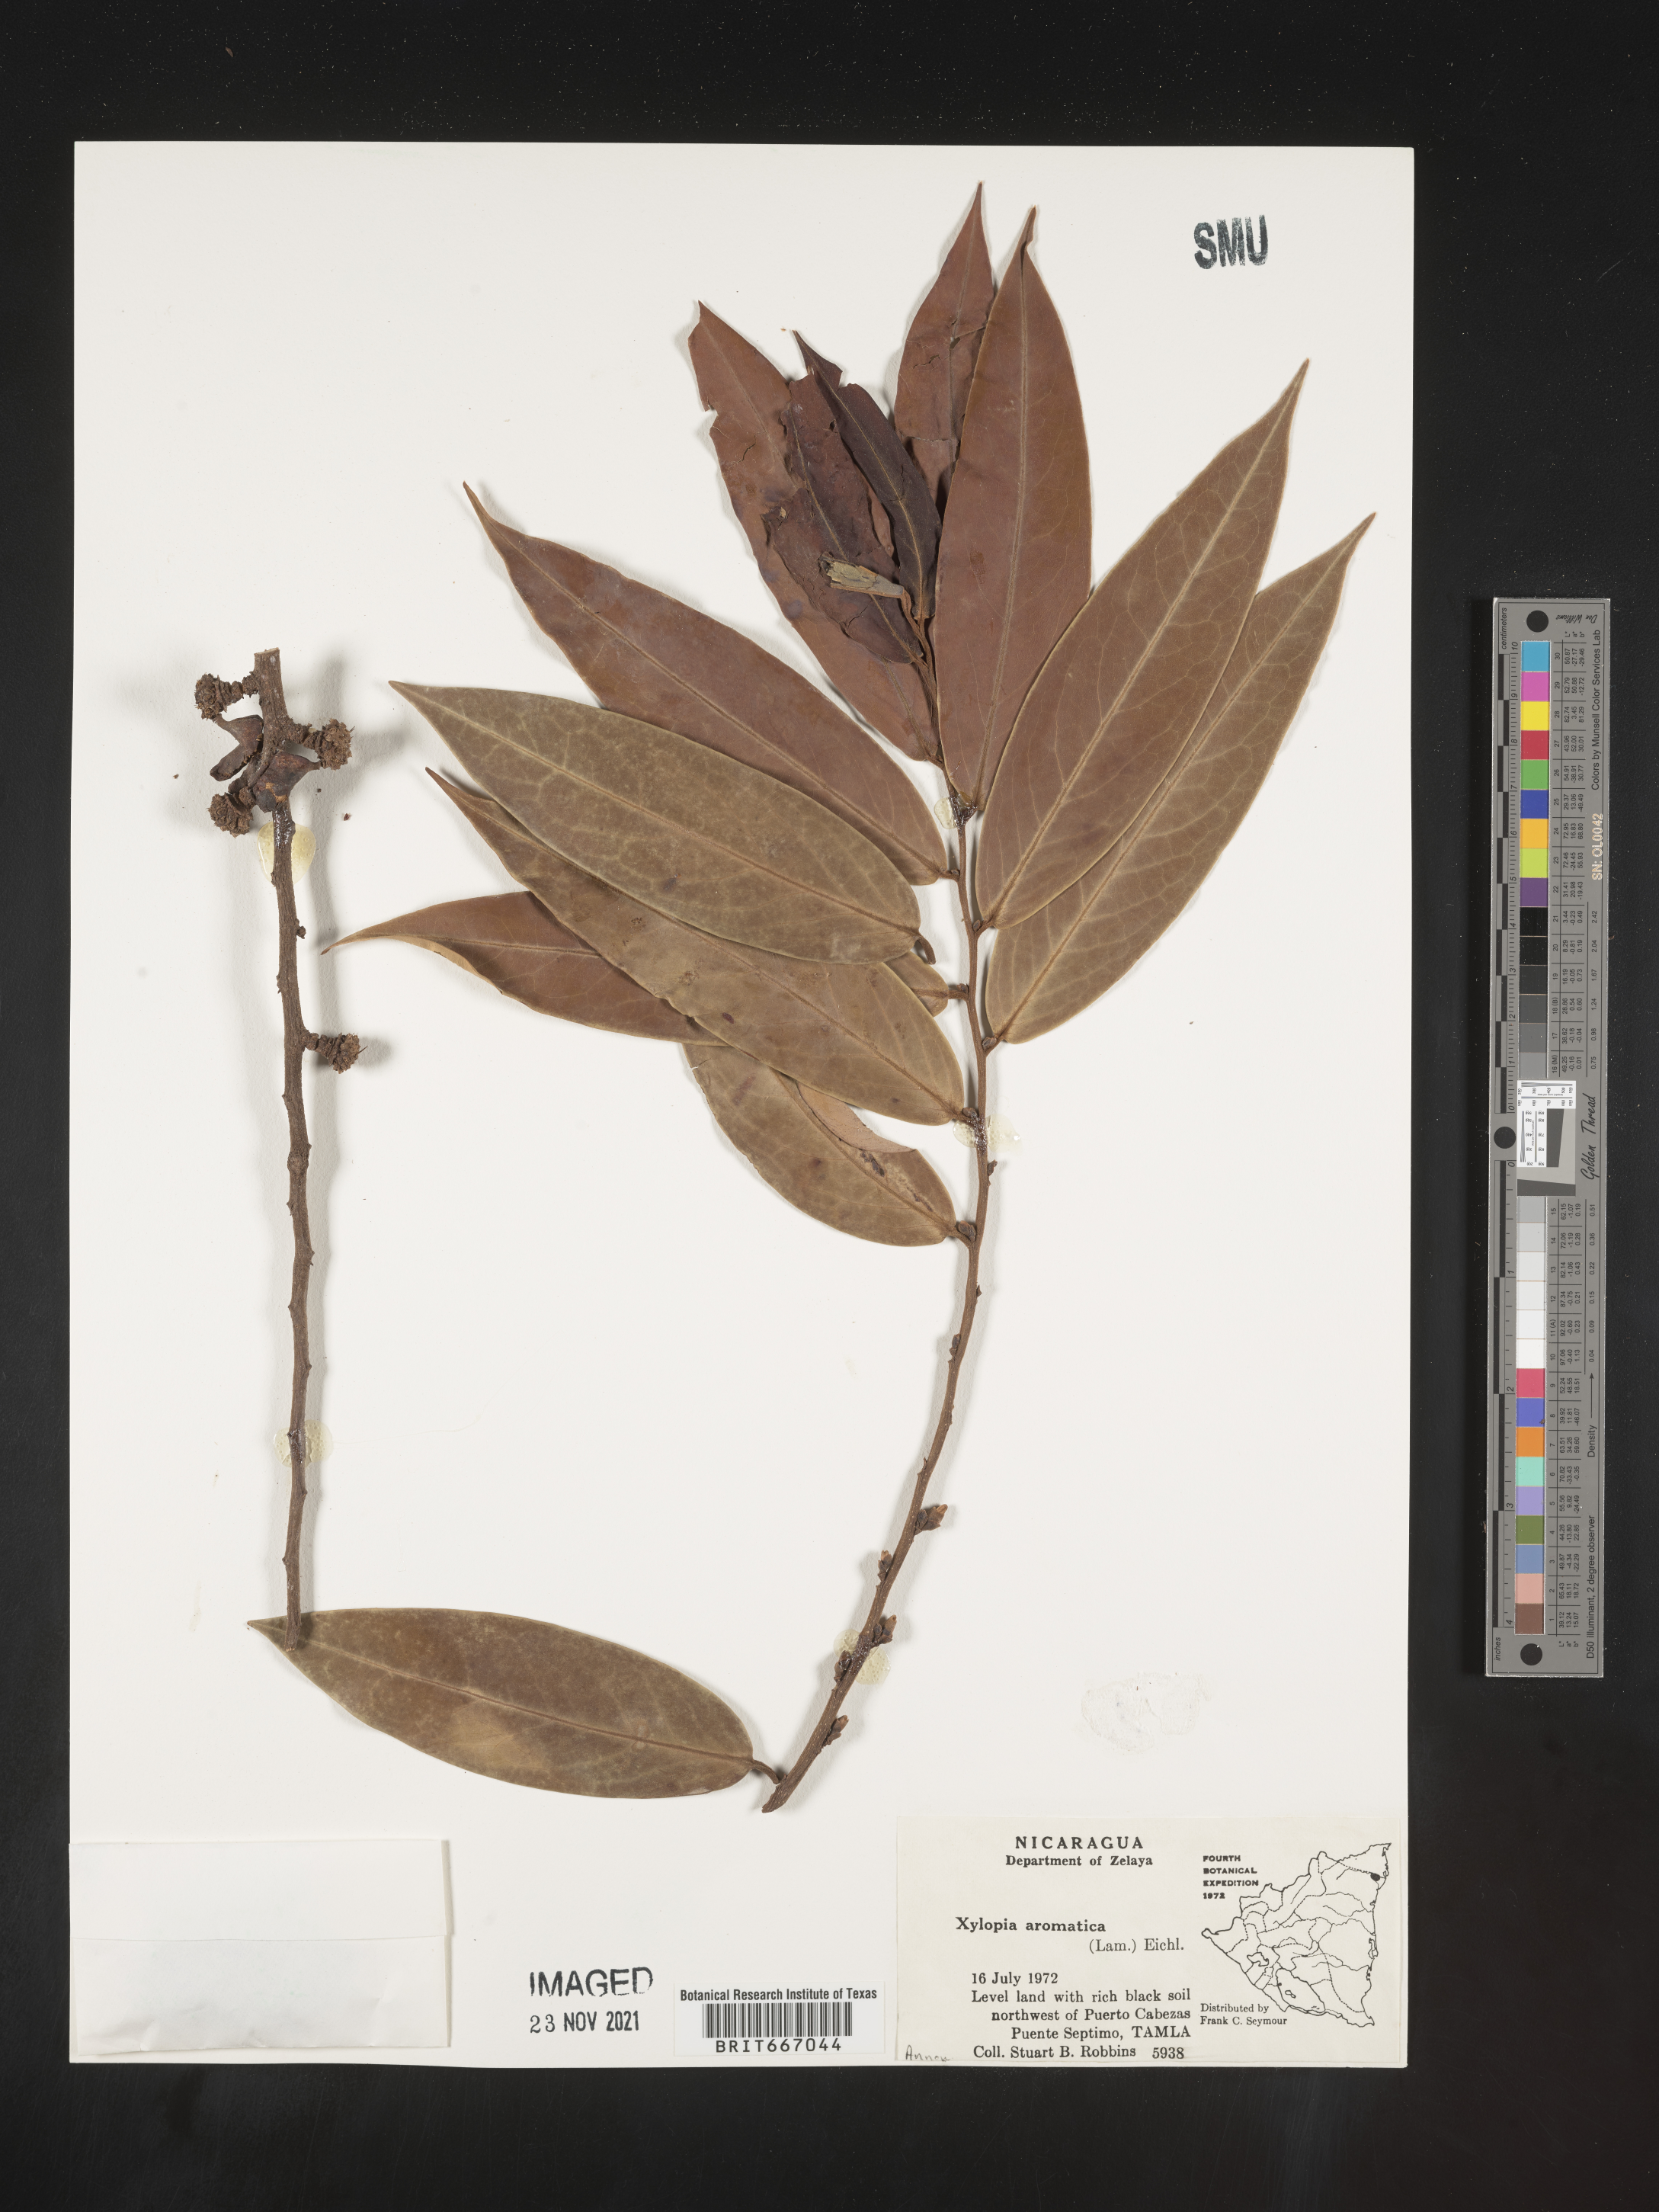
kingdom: Plantae
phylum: Tracheophyta
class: Magnoliopsida
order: Magnoliales
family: Annonaceae
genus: Xylopia
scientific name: Xylopia
